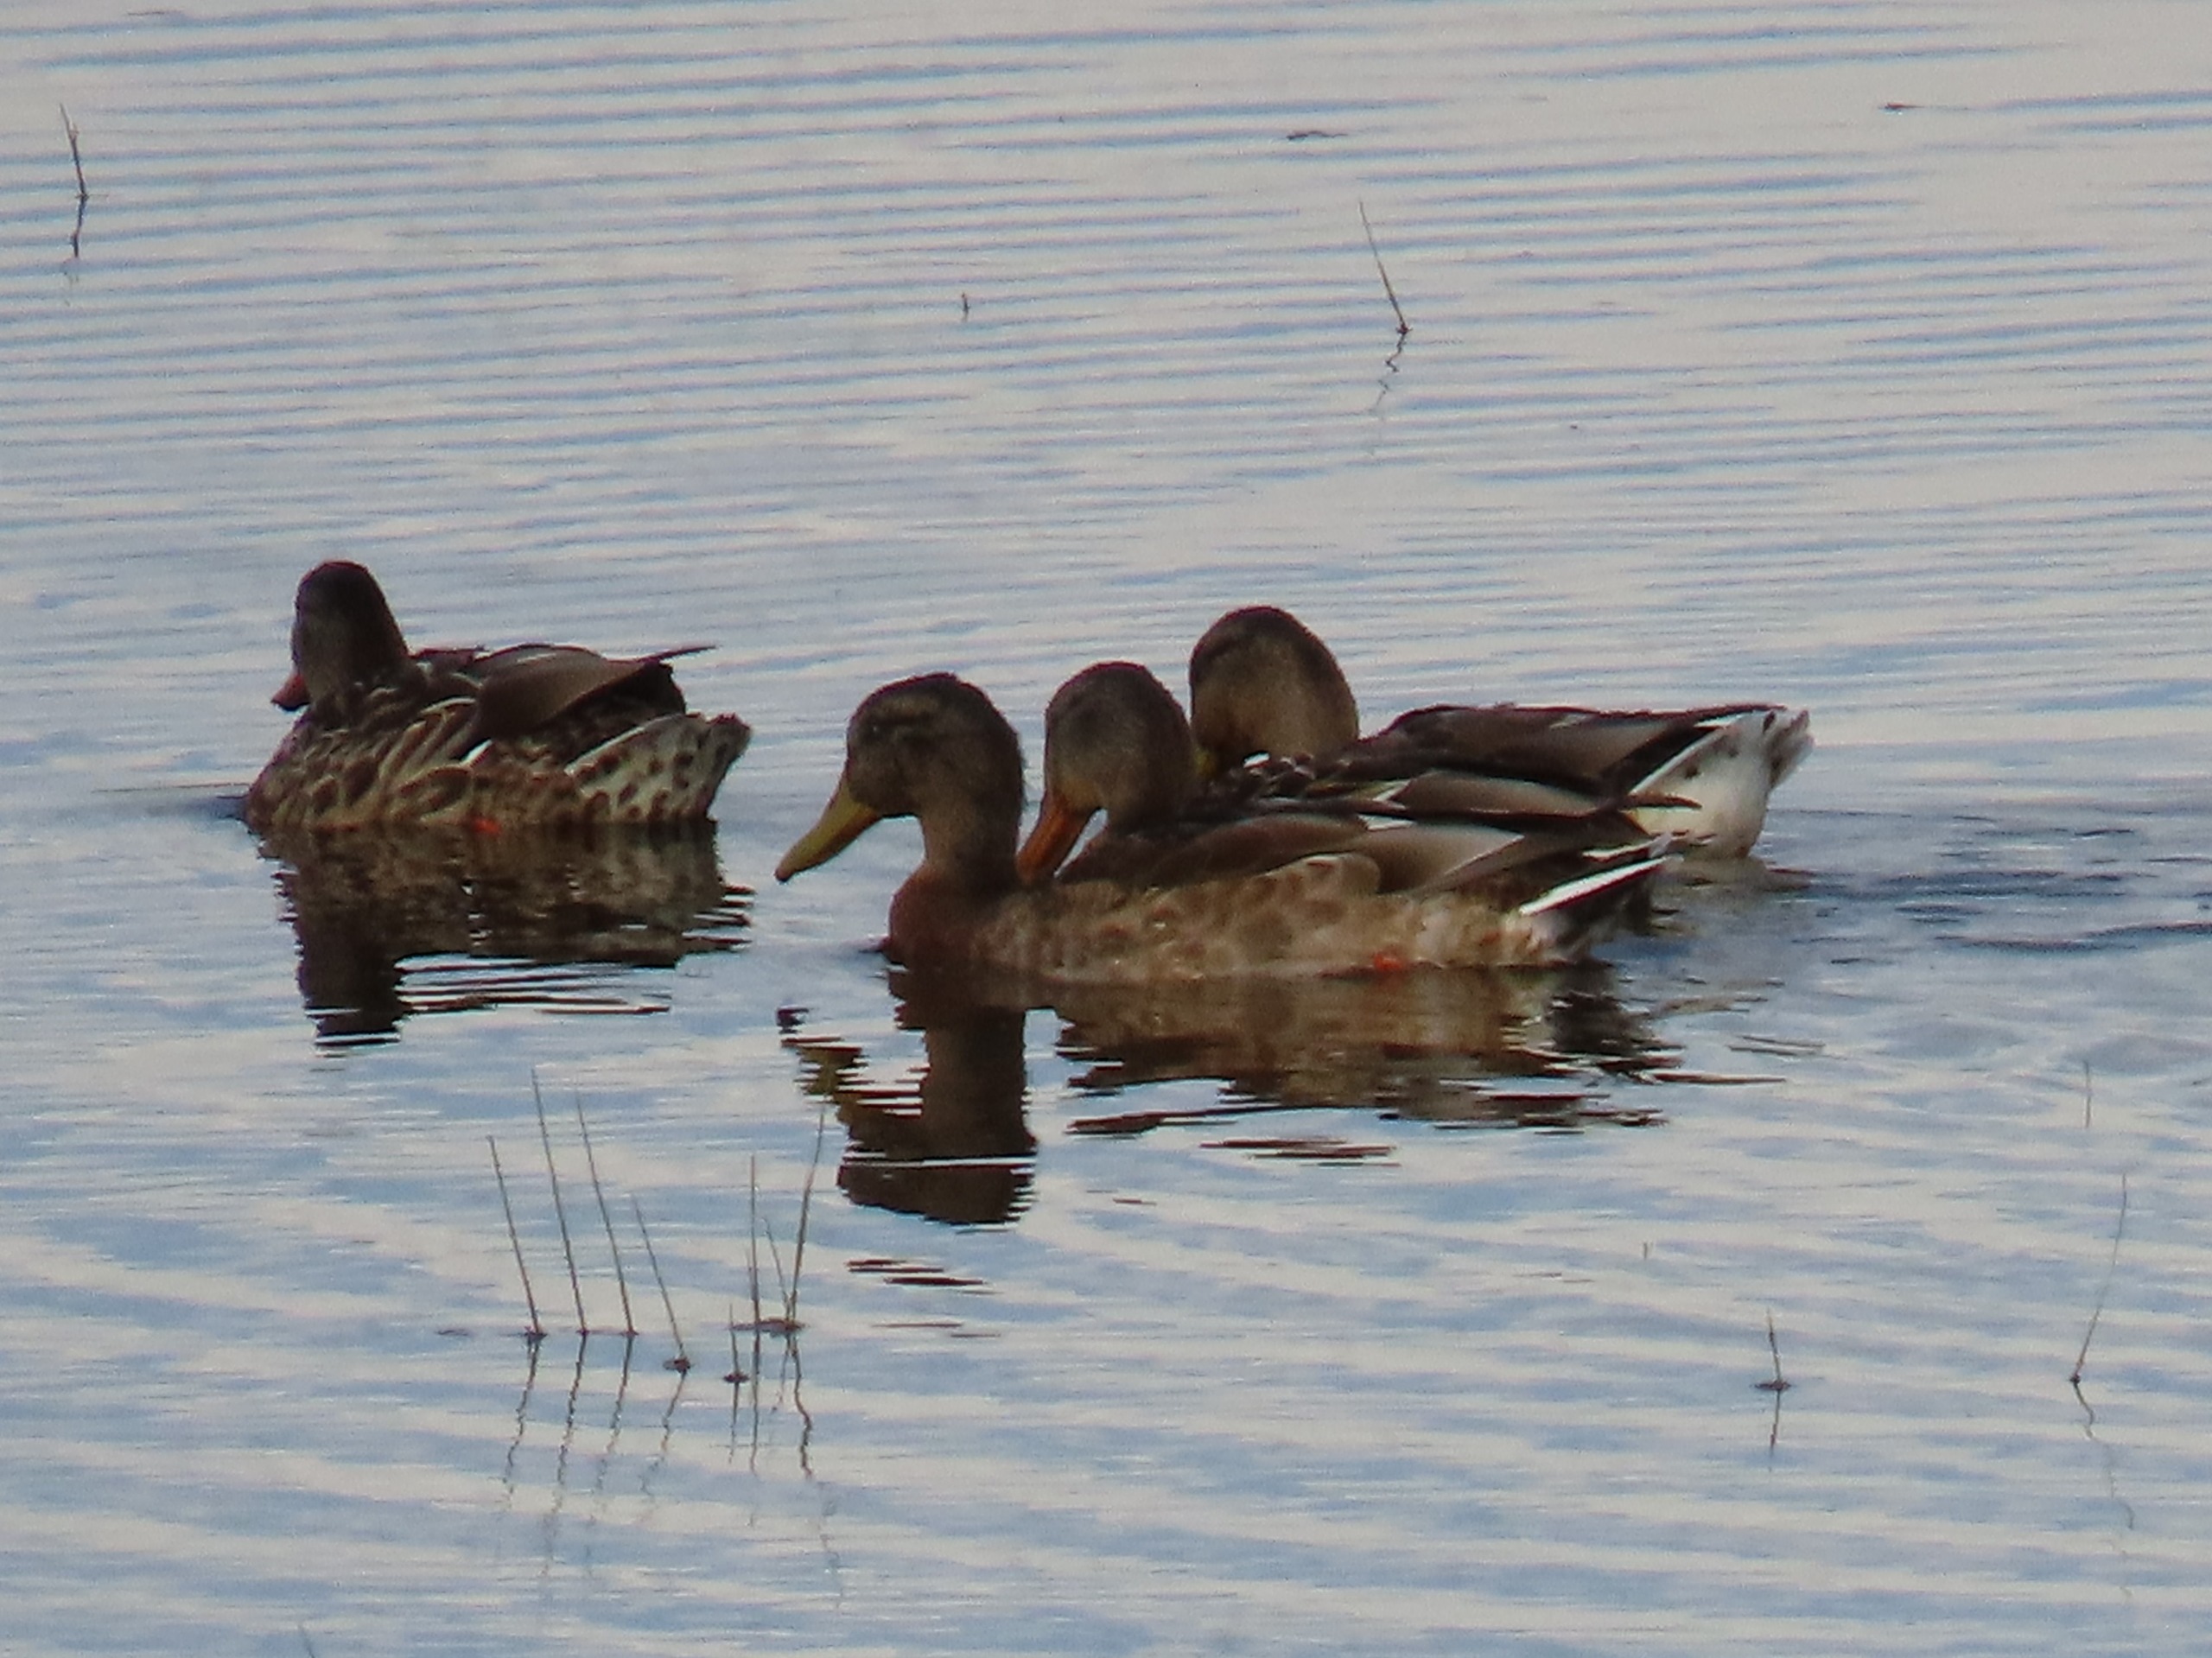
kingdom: Animalia
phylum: Chordata
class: Aves
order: Anseriformes
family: Anatidae
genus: Anas
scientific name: Anas platyrhynchos
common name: Gråand
